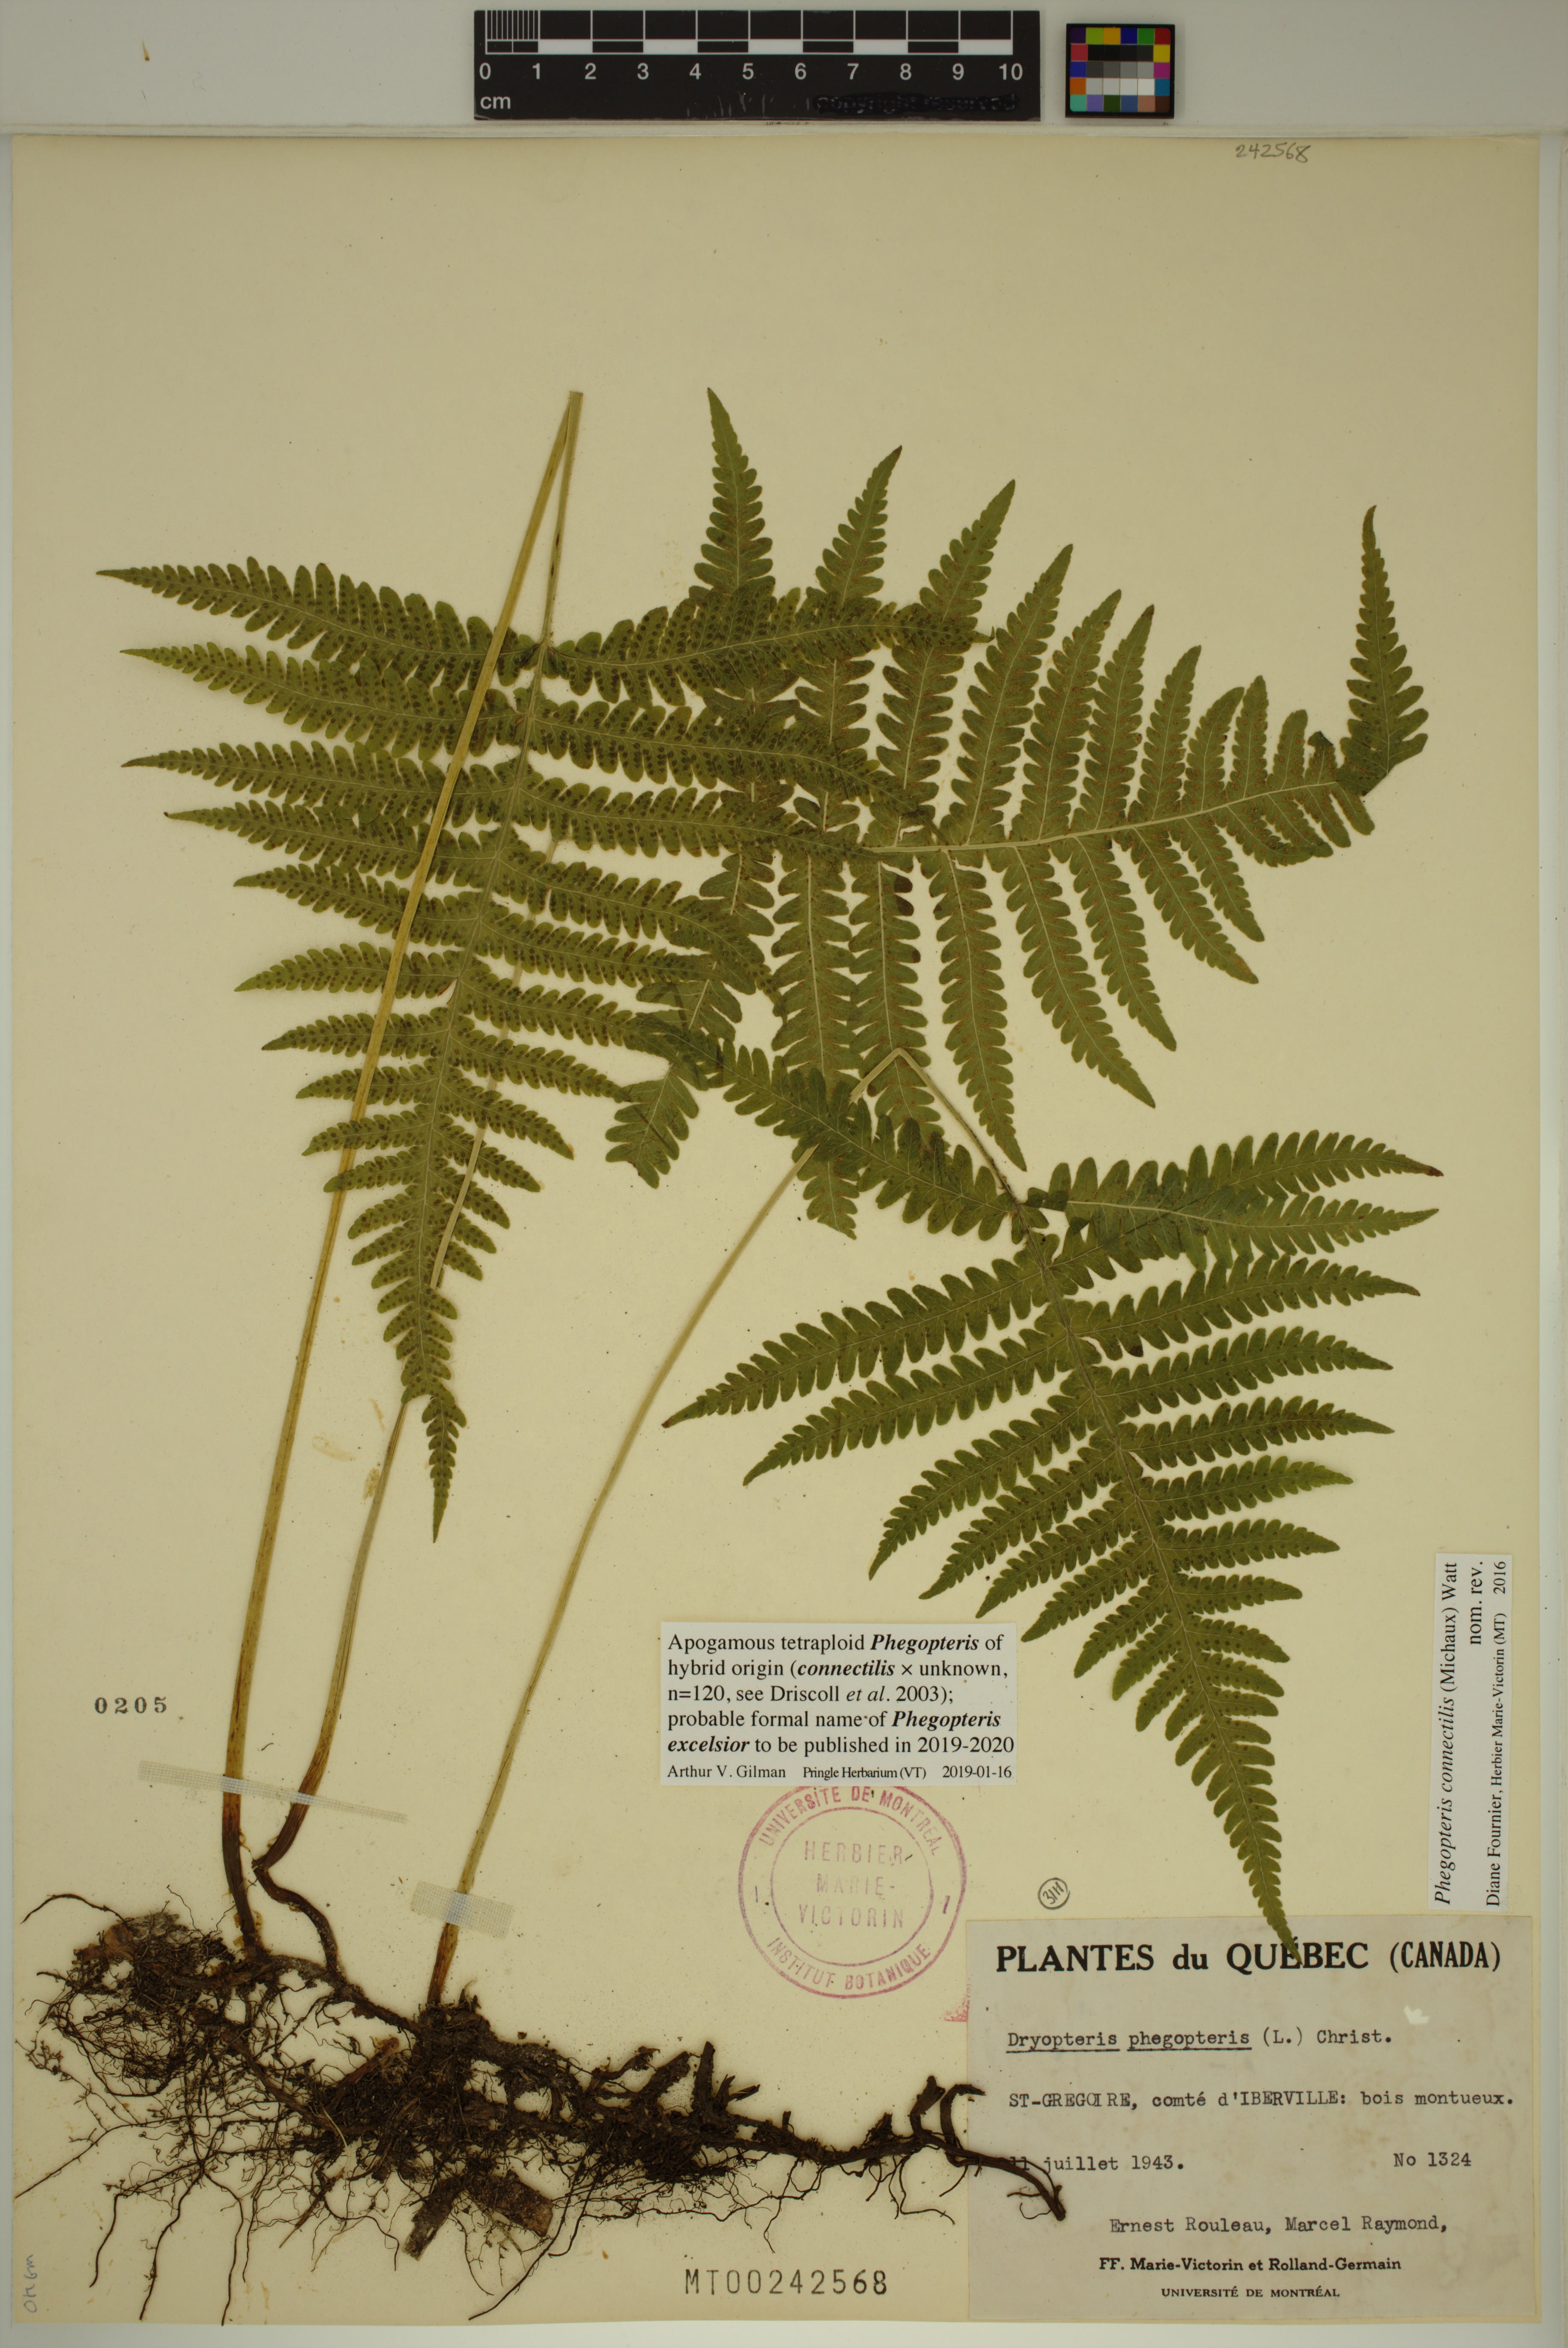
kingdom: Plantae
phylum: Tracheophyta
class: Polypodiopsida
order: Polypodiales
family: Thelypteridaceae
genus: Phegopteris
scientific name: Phegopteris
